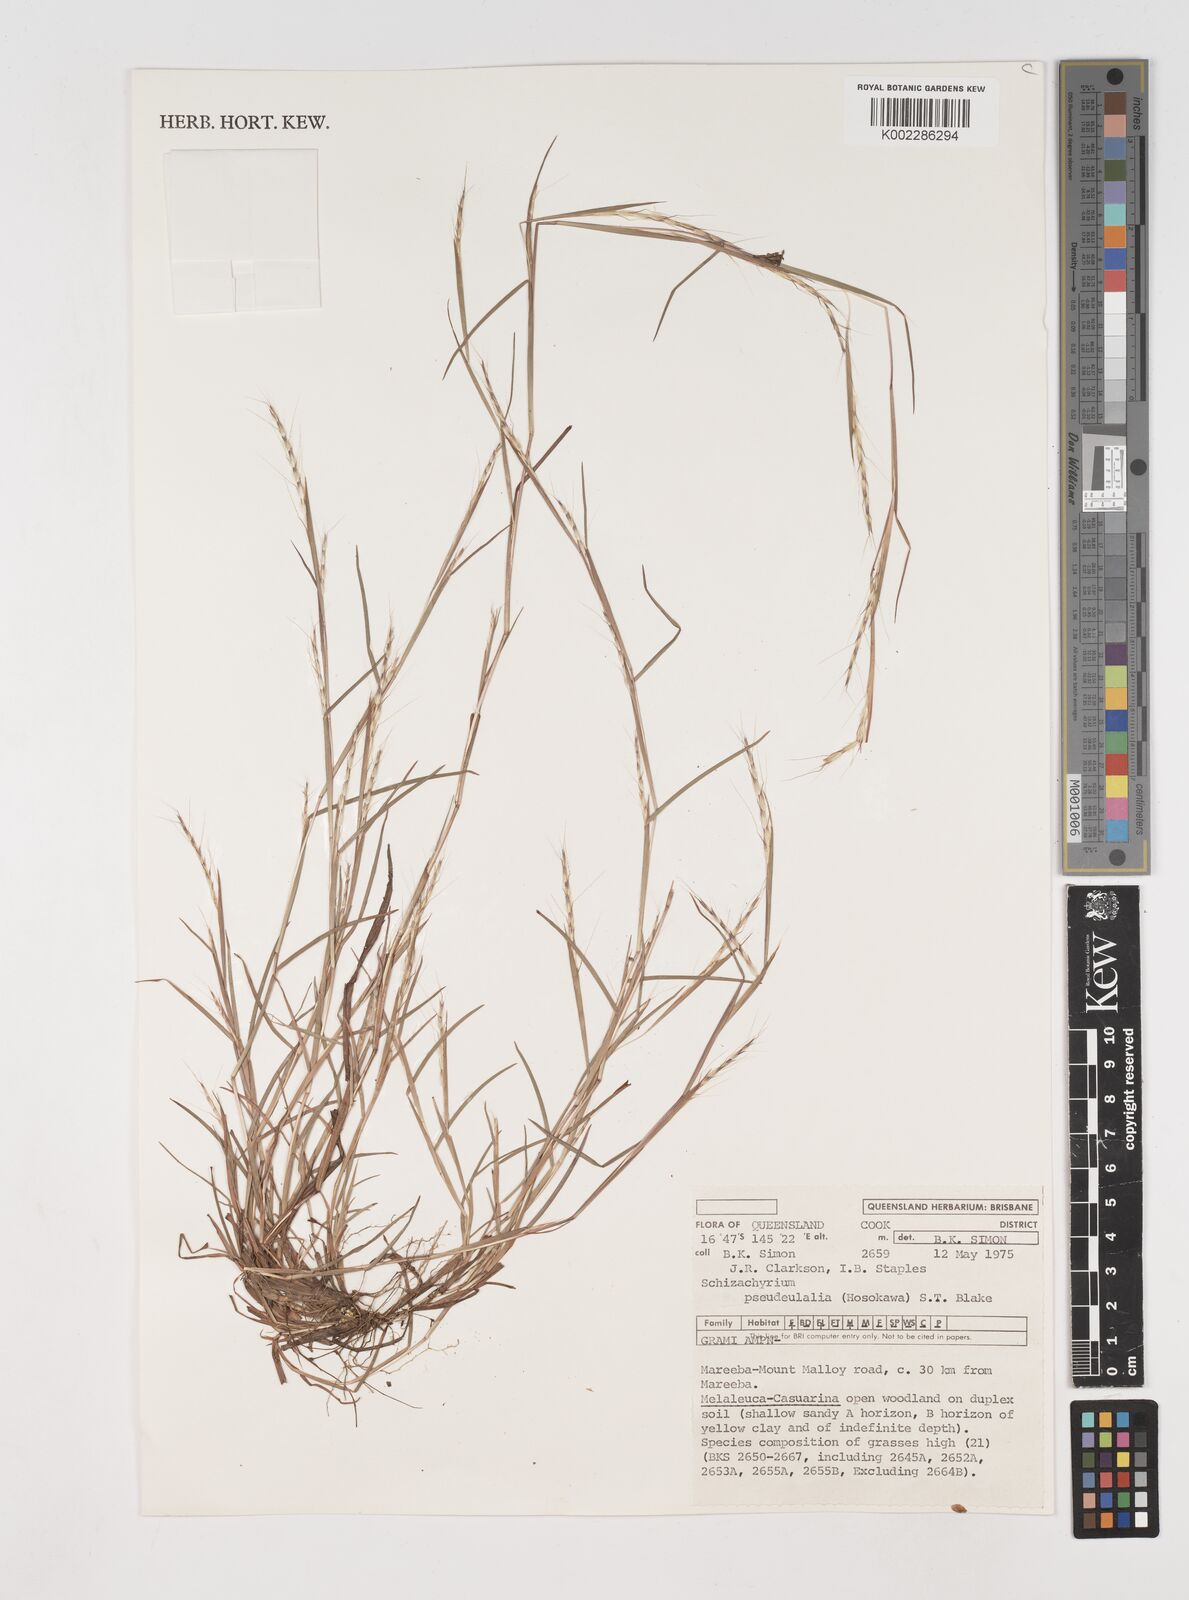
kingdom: Plantae
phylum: Tracheophyta
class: Liliopsida
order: Poales
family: Poaceae
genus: Schizachyrium
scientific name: Schizachyrium pseudeulalia
